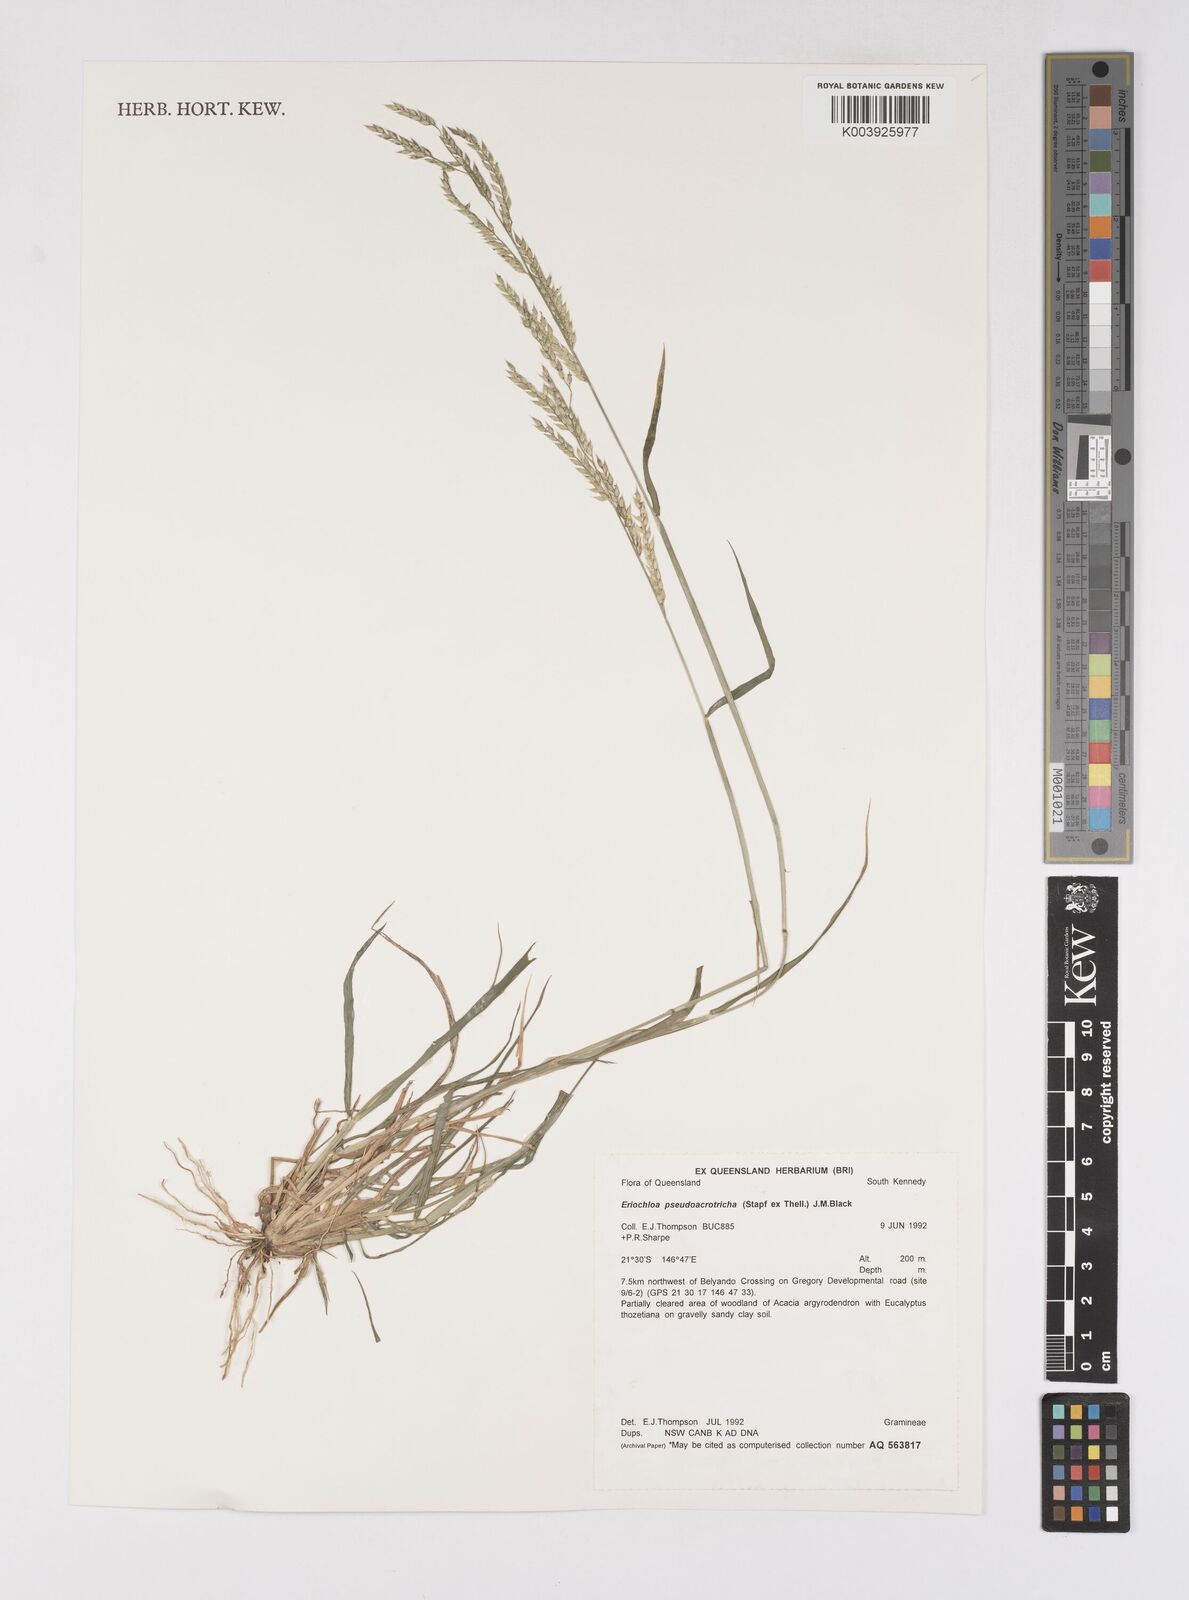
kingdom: Plantae
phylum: Tracheophyta
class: Liliopsida
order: Poales
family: Poaceae
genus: Eriochloa
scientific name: Eriochloa pseudoacrotricha
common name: Perennial cup-grass
